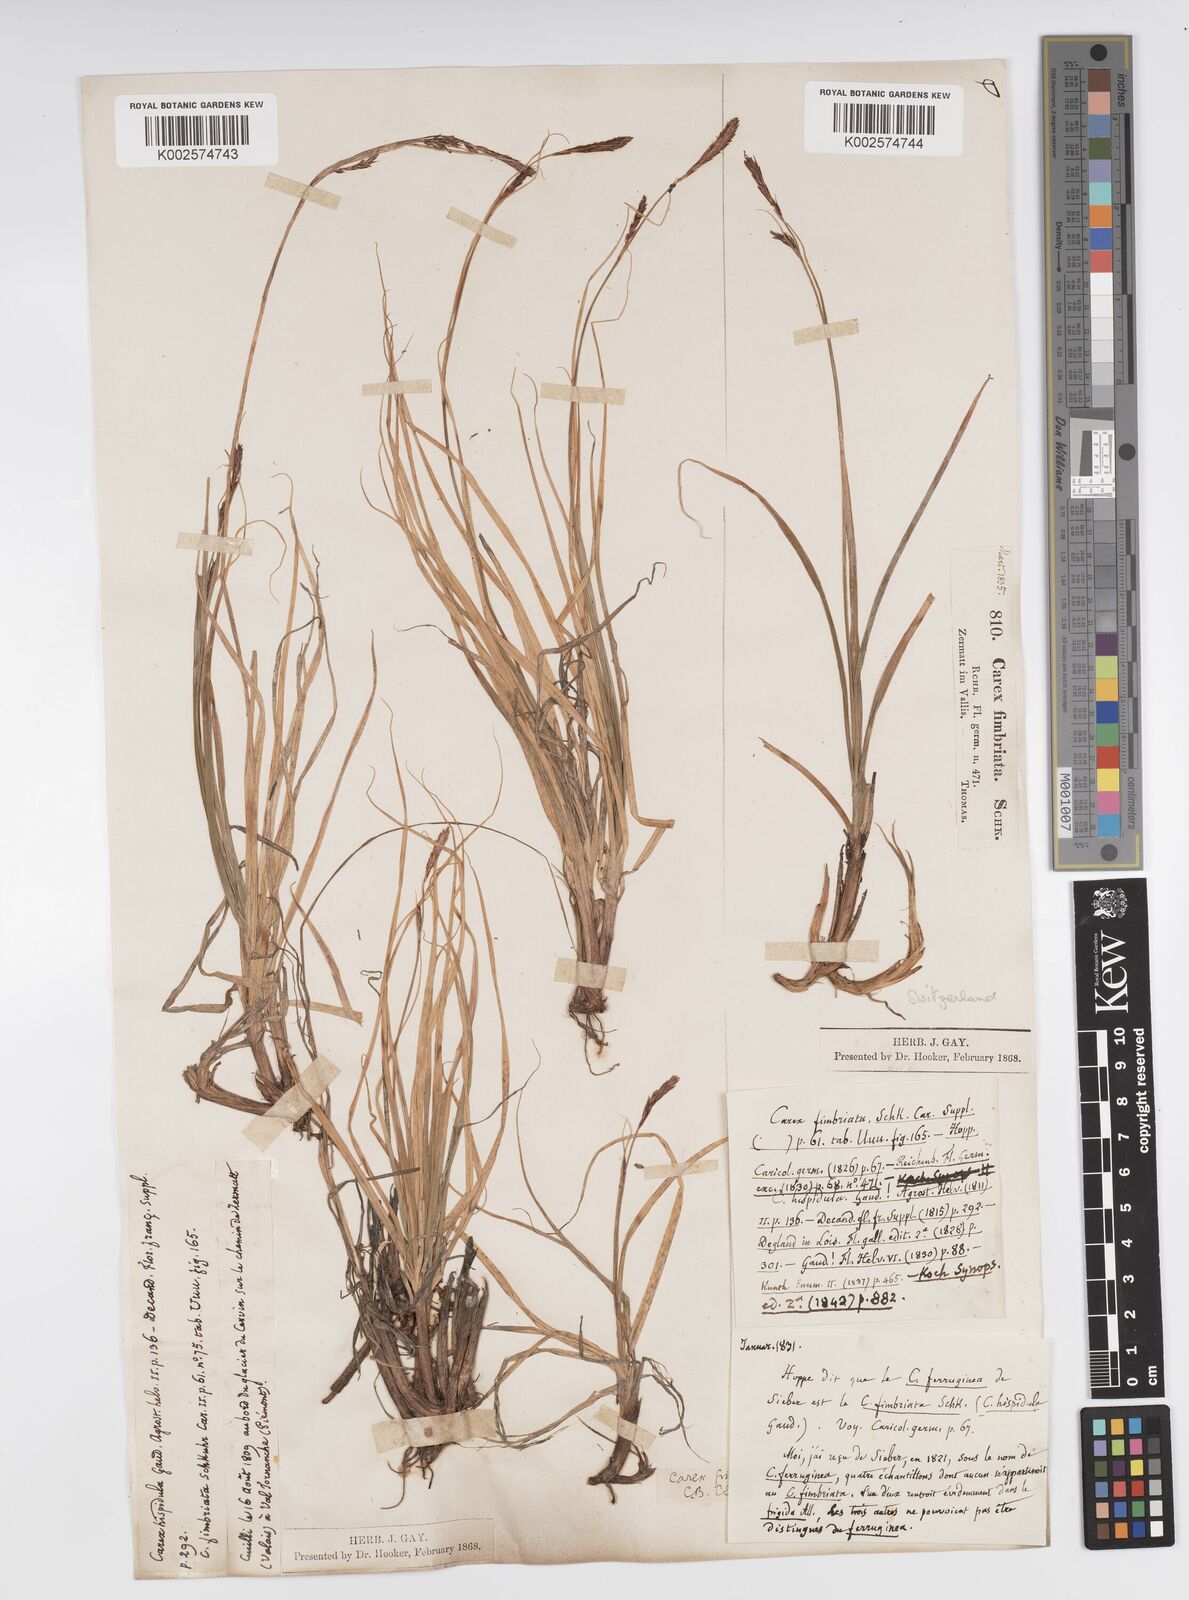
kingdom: Plantae
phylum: Tracheophyta
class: Liliopsida
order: Poales
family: Cyperaceae
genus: Carex
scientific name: Carex fimbriata
